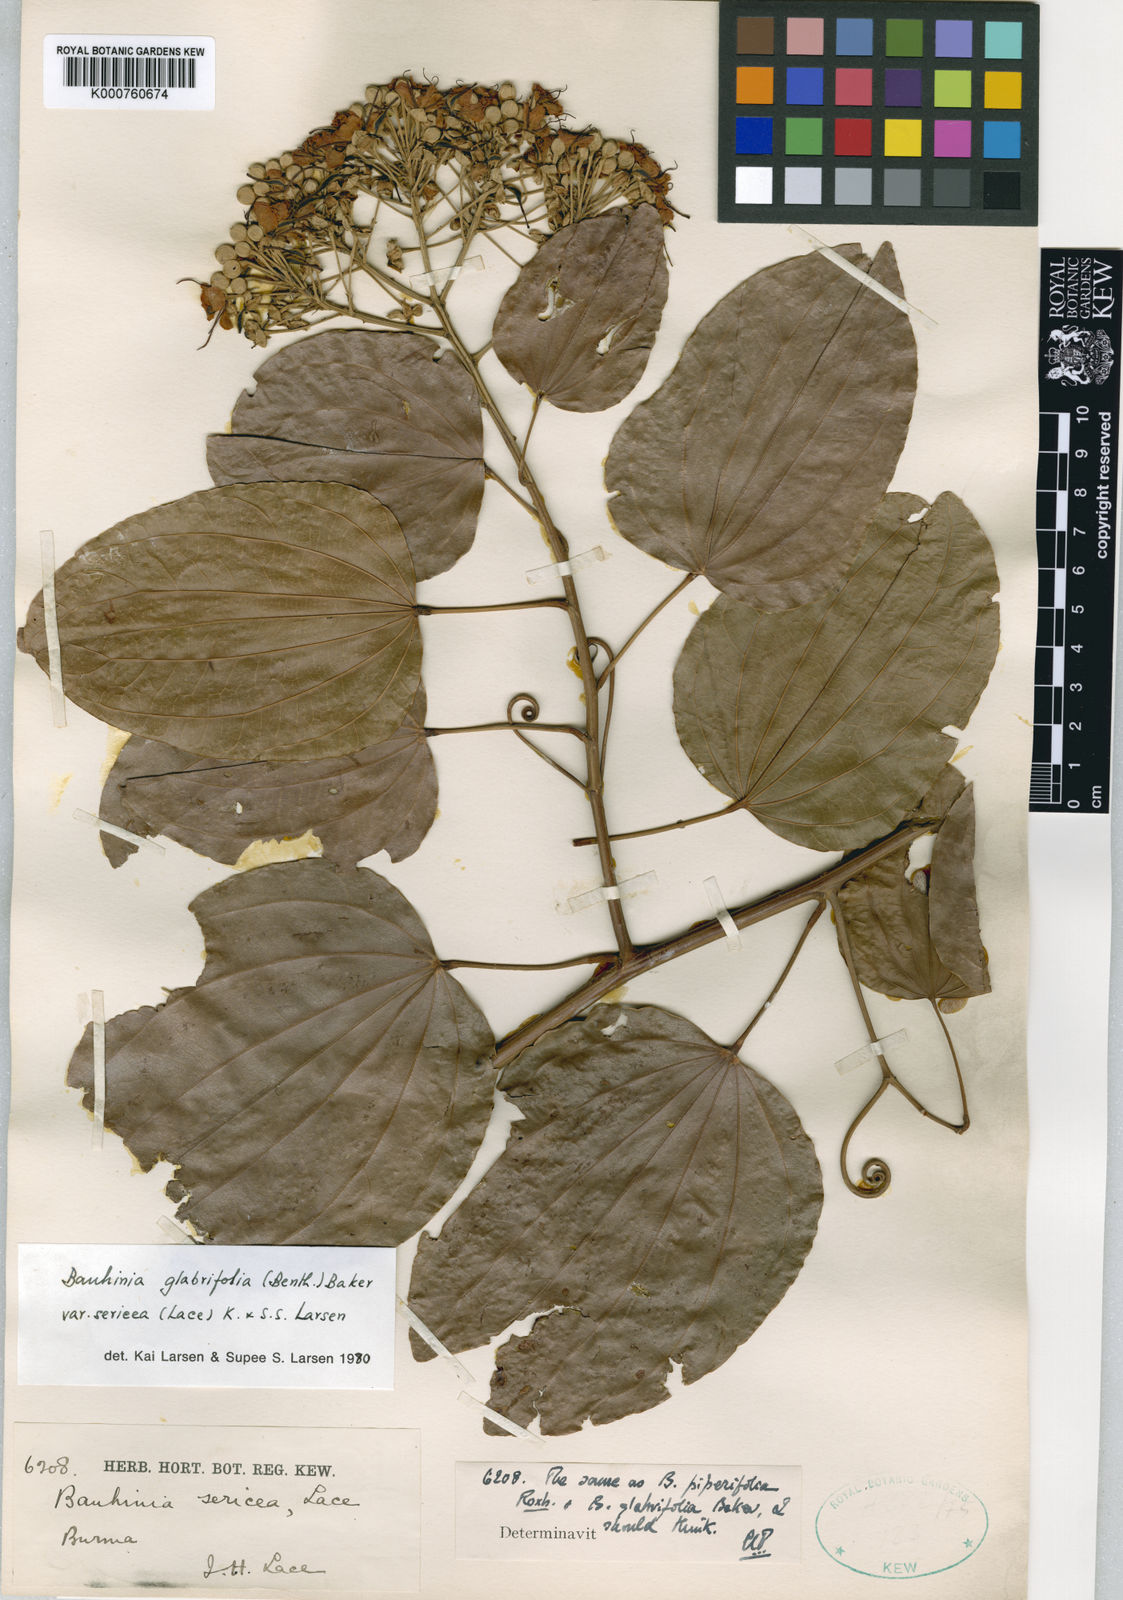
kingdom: Plantae
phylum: Tracheophyta
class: Magnoliopsida
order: Fabales
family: Fabaceae
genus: Phanera
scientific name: Phanera glabrifolia
